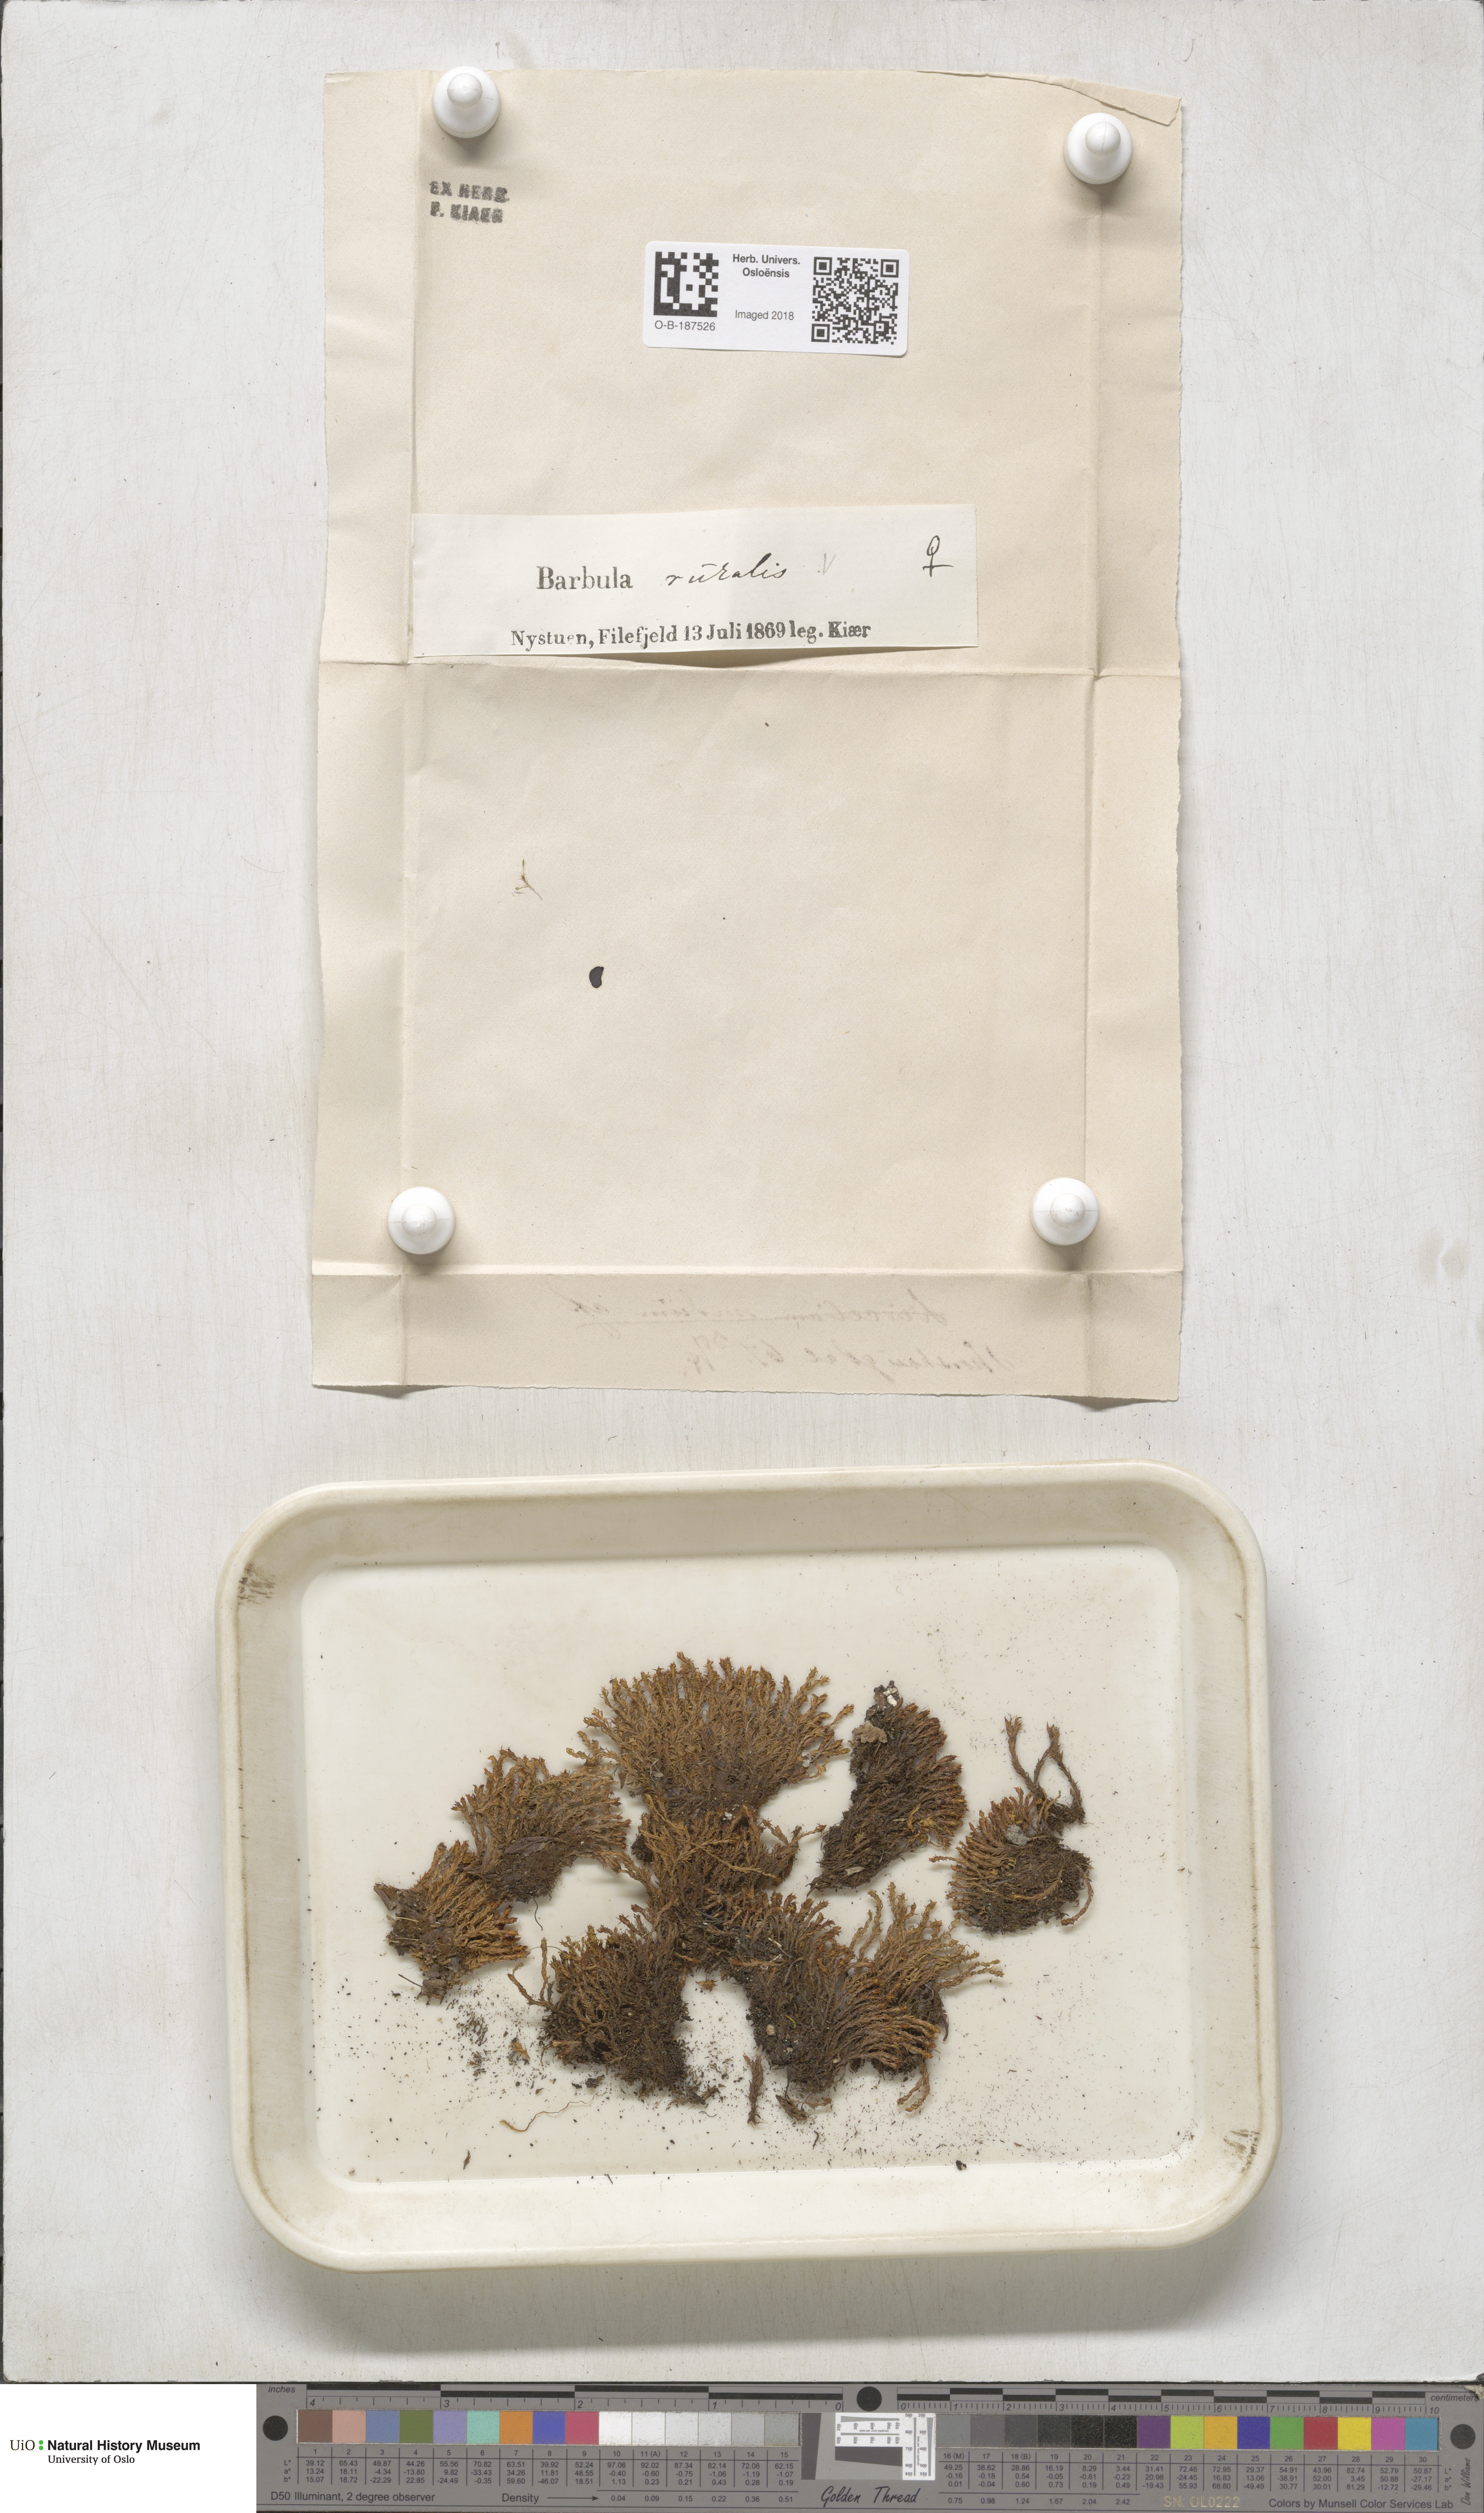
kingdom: Plantae
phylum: Bryophyta
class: Bryopsida
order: Pottiales
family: Pottiaceae
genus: Syntrichia
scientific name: Syntrichia ruralis
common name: Sidewalk screw moss
